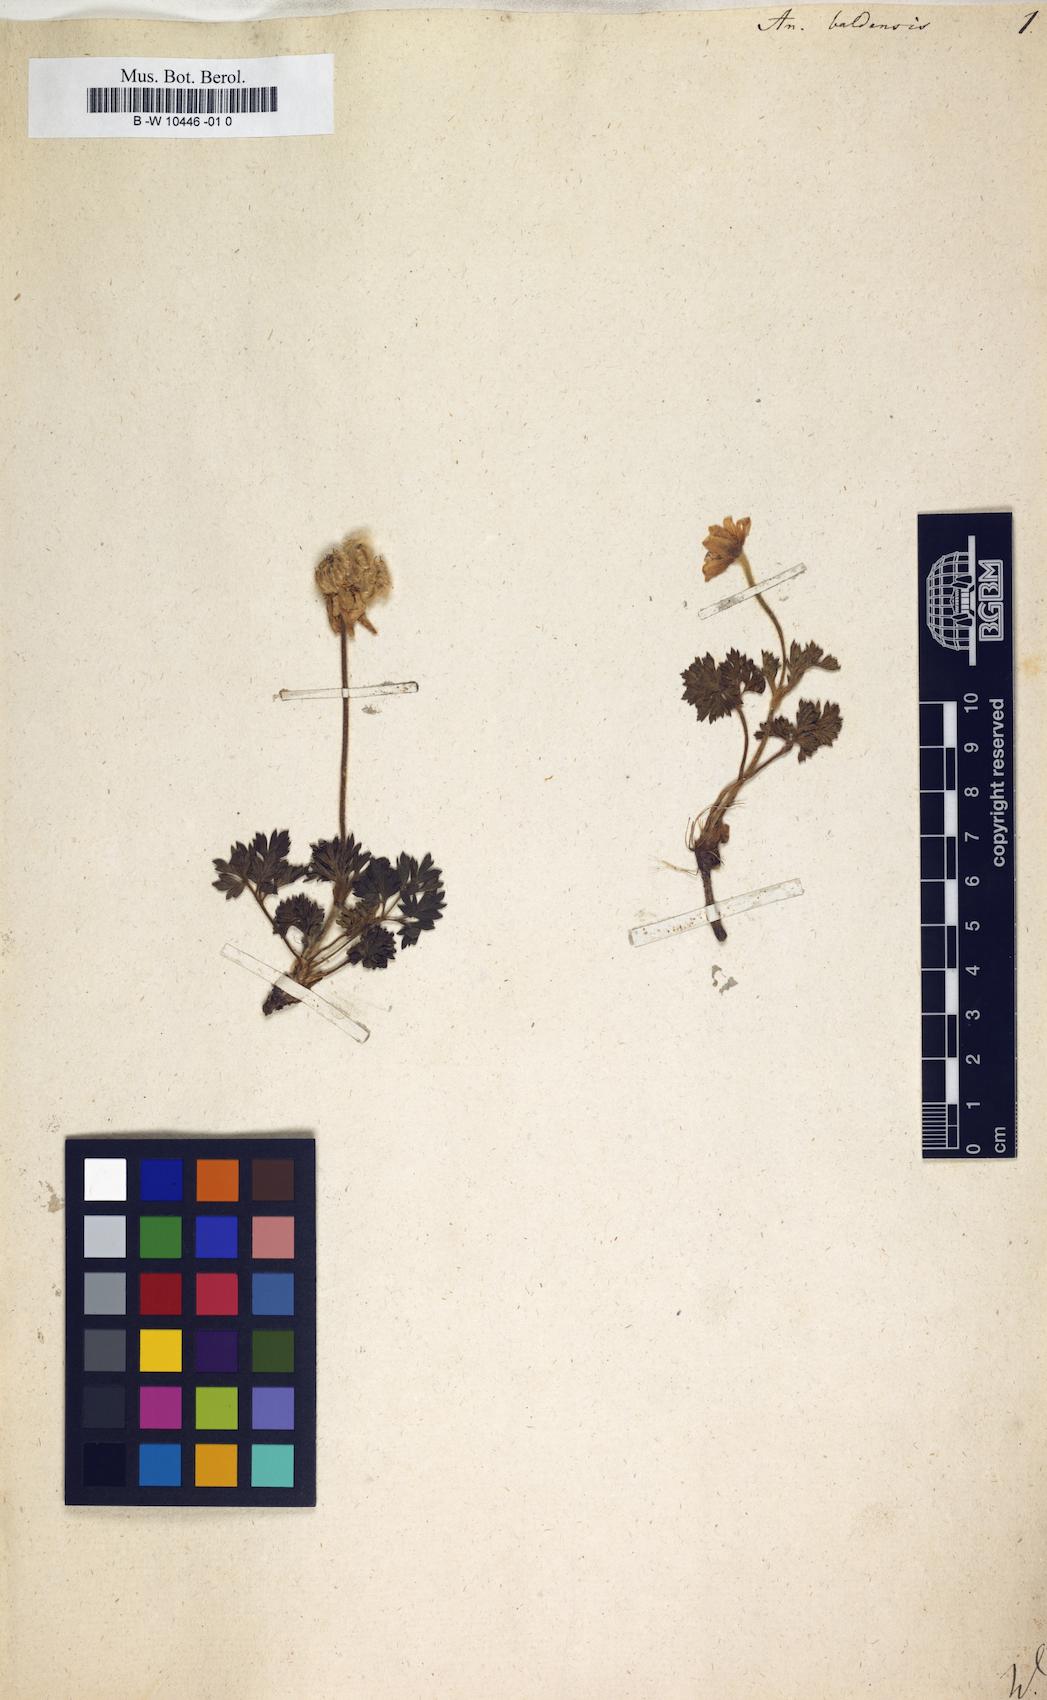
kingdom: Plantae
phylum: Tracheophyta
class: Magnoliopsida
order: Ranunculales
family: Ranunculaceae
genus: Anemone
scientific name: Anemone baldensis
